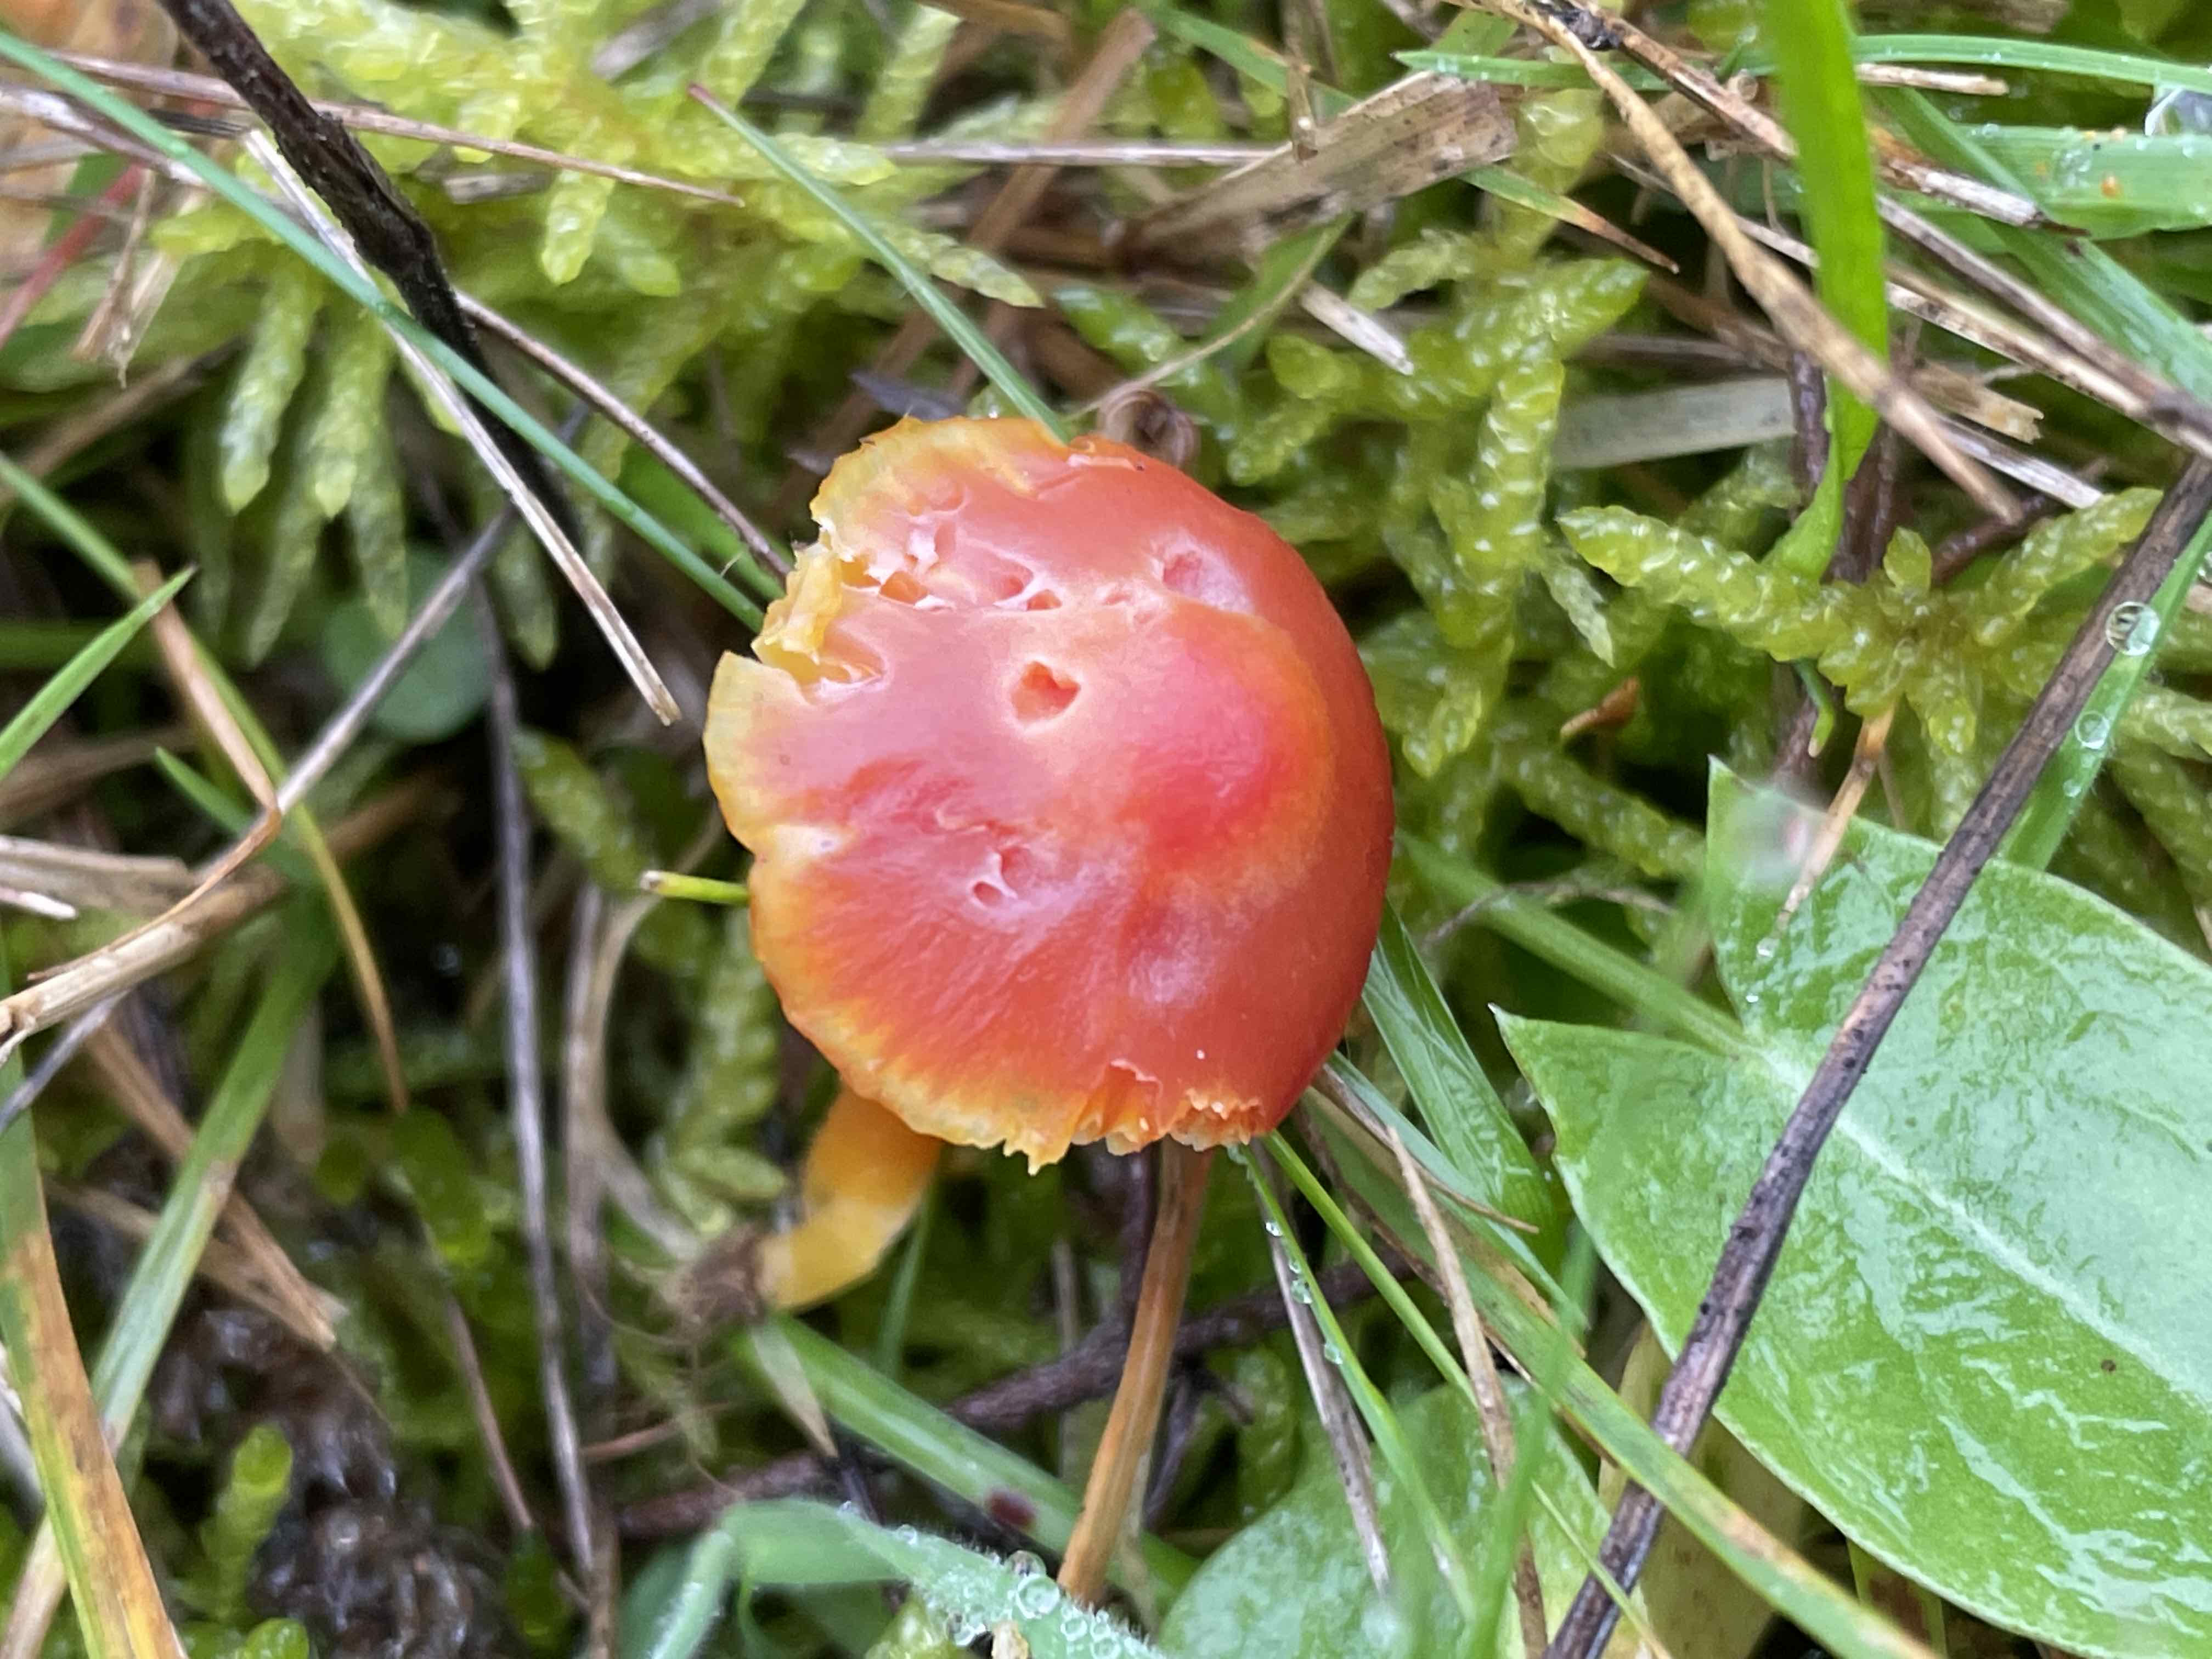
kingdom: Fungi
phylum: Basidiomycota
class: Agaricomycetes
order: Agaricales
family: Hygrophoraceae
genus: Hygrocybe
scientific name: Hygrocybe miniata
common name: mønje-vokshat
